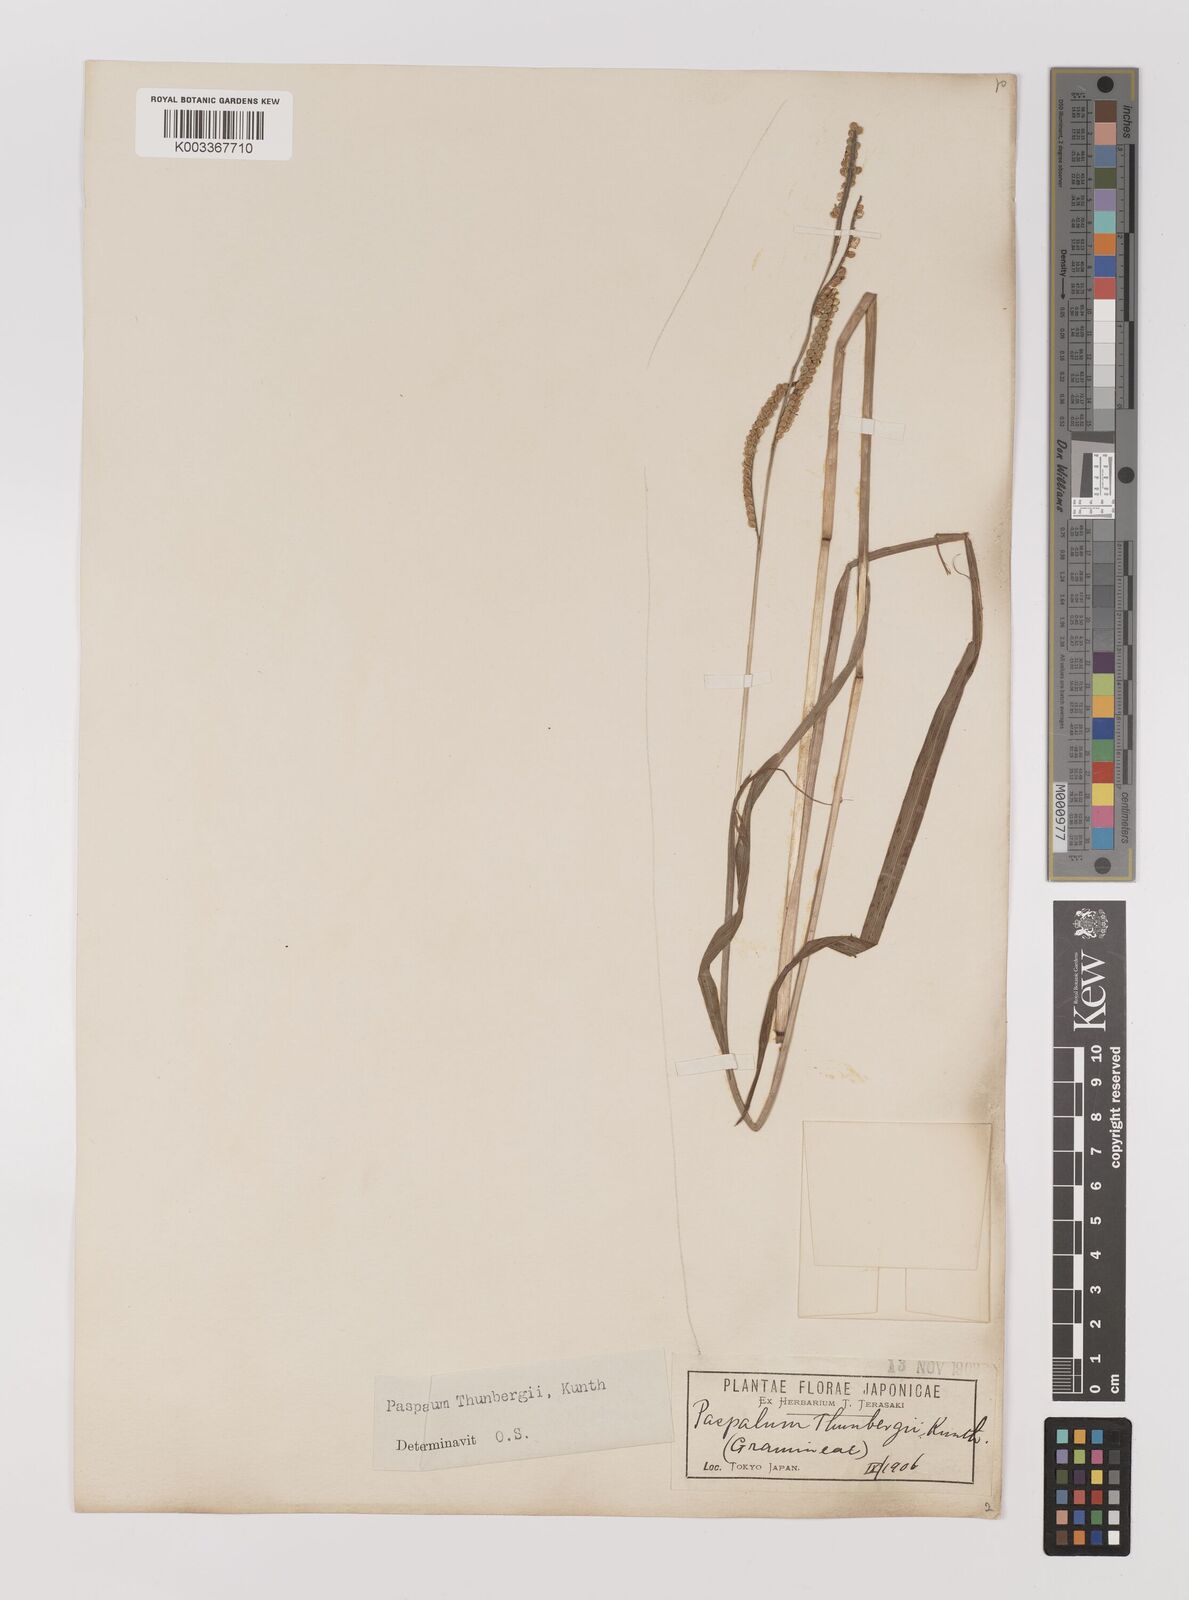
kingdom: Plantae
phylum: Tracheophyta
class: Liliopsida
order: Poales
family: Poaceae
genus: Panicum
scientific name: Panicum
